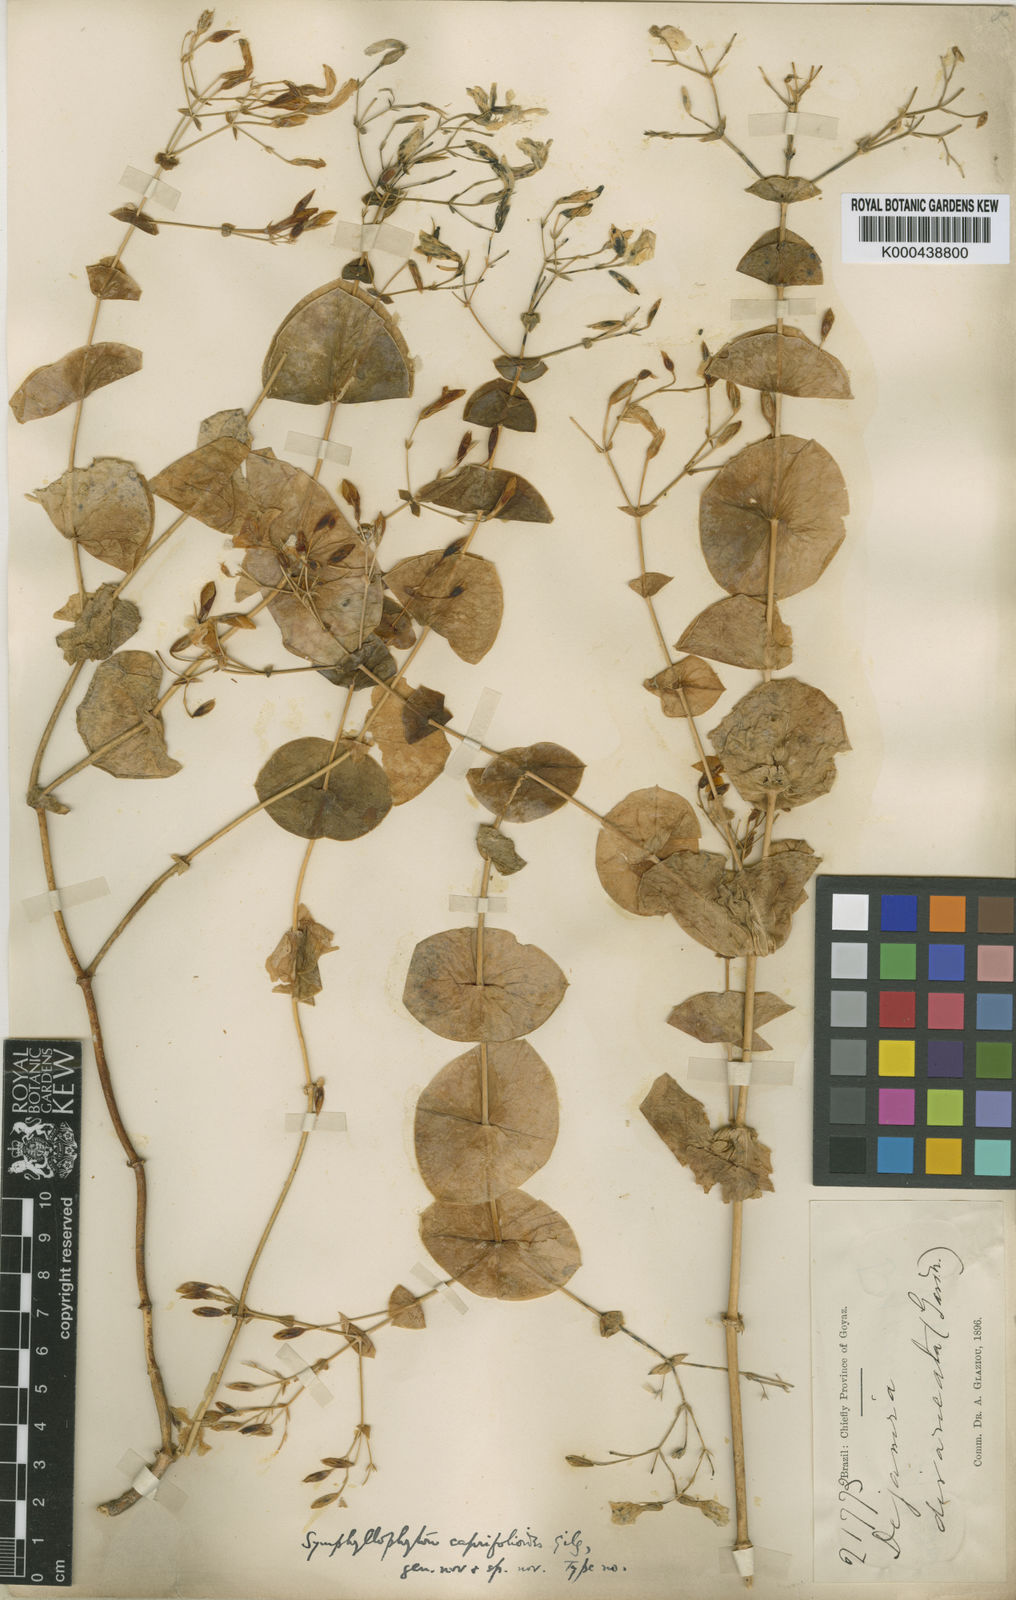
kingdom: Plantae
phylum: Tracheophyta
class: Magnoliopsida
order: Gentianales
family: Gentianaceae
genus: Symphyllophyton
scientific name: Symphyllophyton caprifolioides
